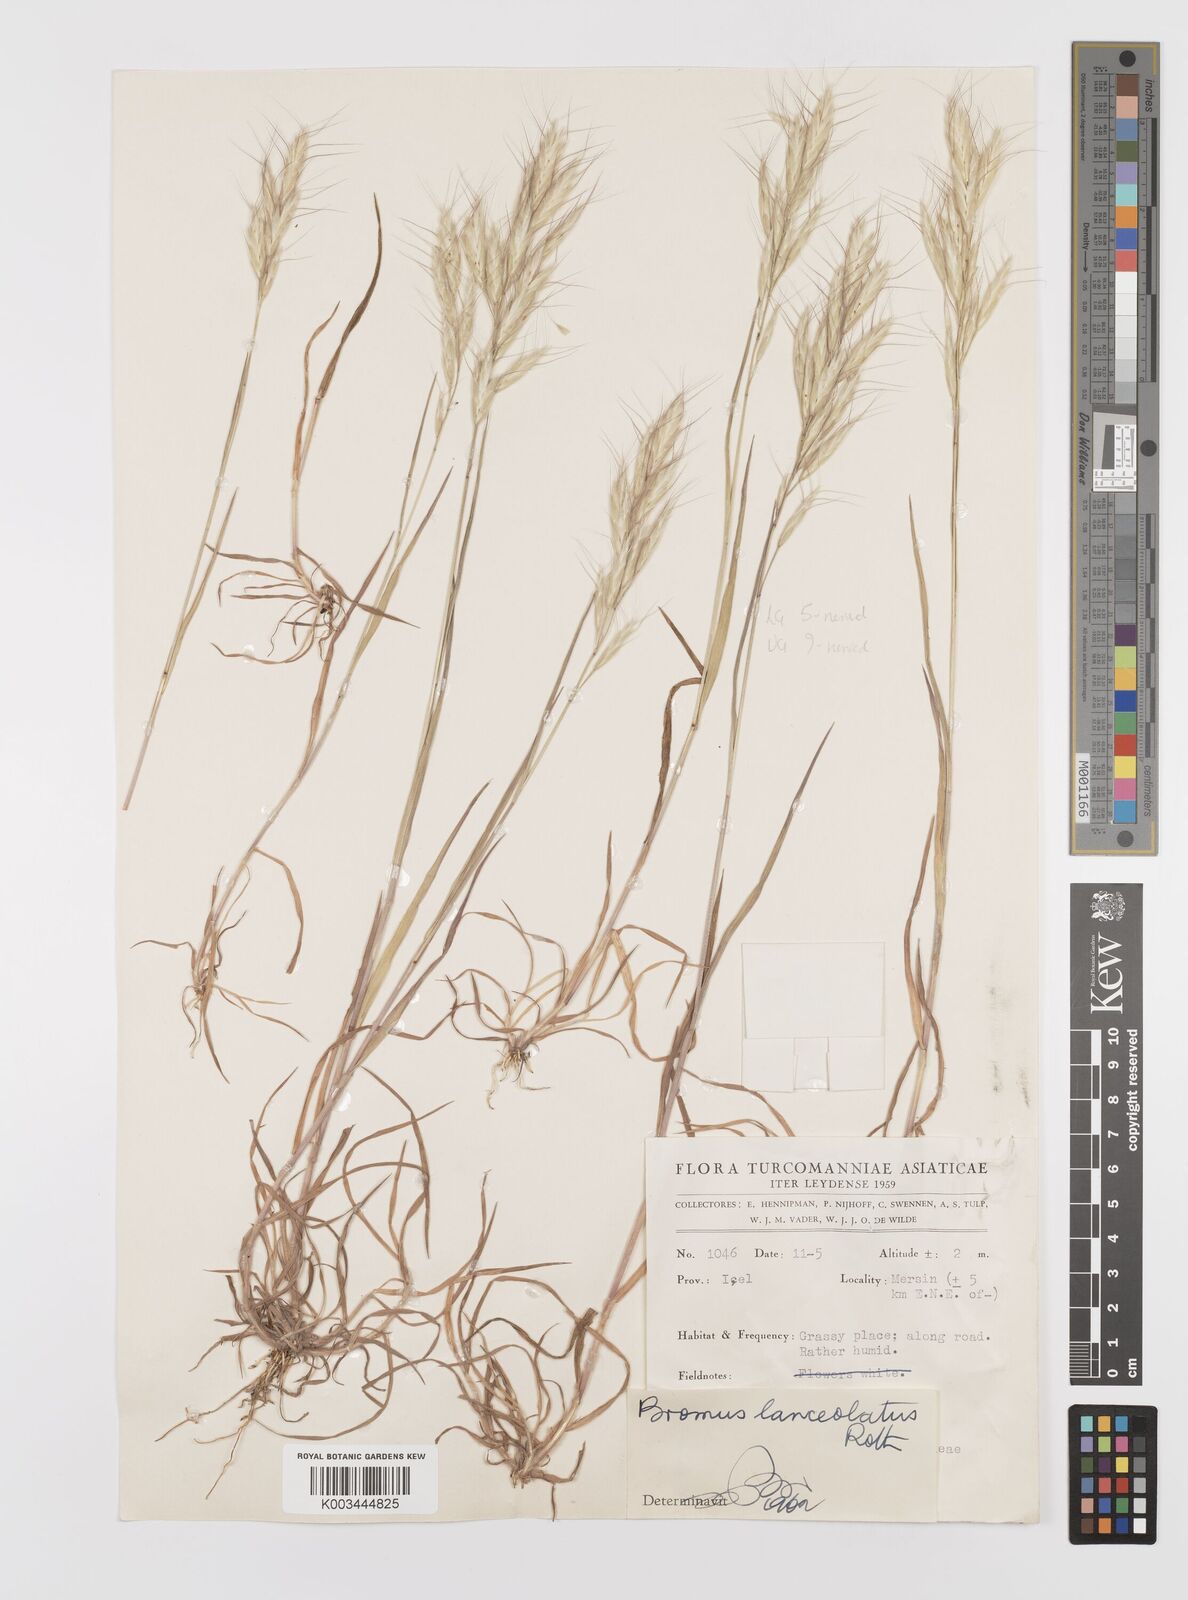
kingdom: Plantae
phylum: Tracheophyta
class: Liliopsida
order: Poales
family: Poaceae
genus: Bromus
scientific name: Bromus lanceolatus
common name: Mediterranean brome
